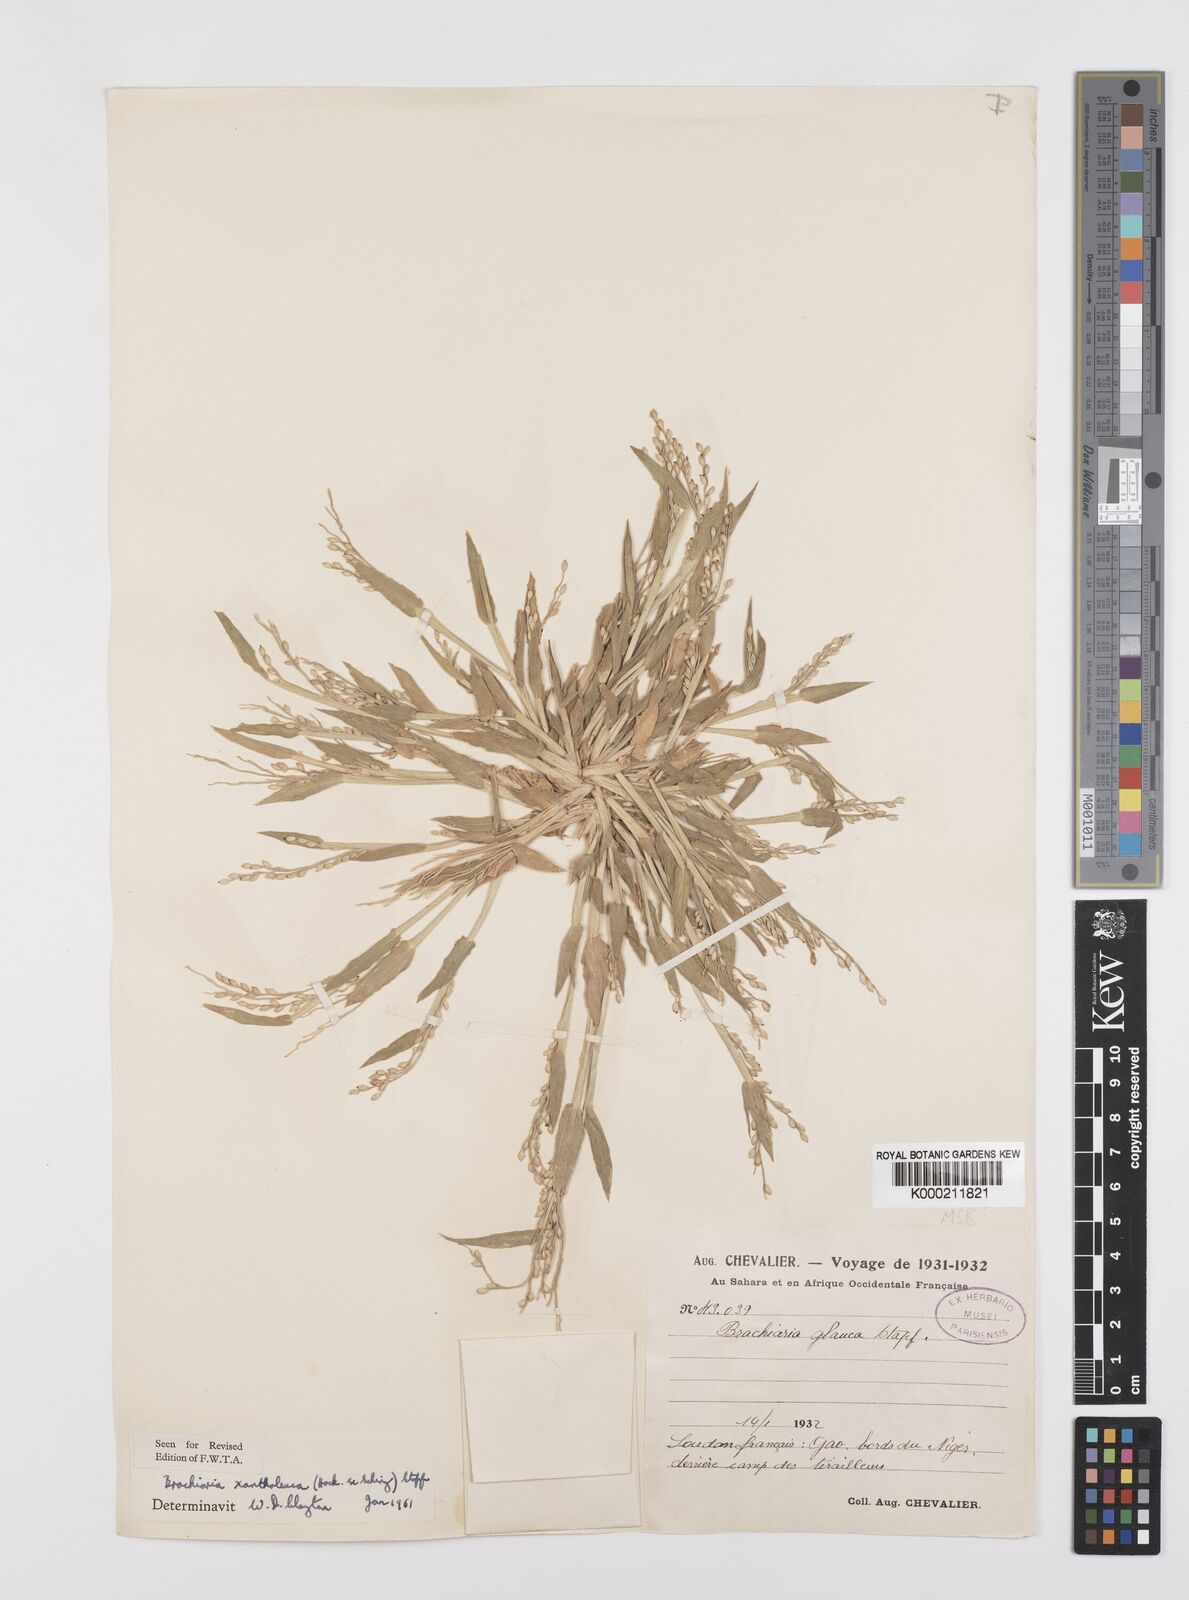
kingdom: Plantae
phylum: Tracheophyta
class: Liliopsida
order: Poales
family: Poaceae
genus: Urochloa
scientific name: Urochloa xantholeuca
